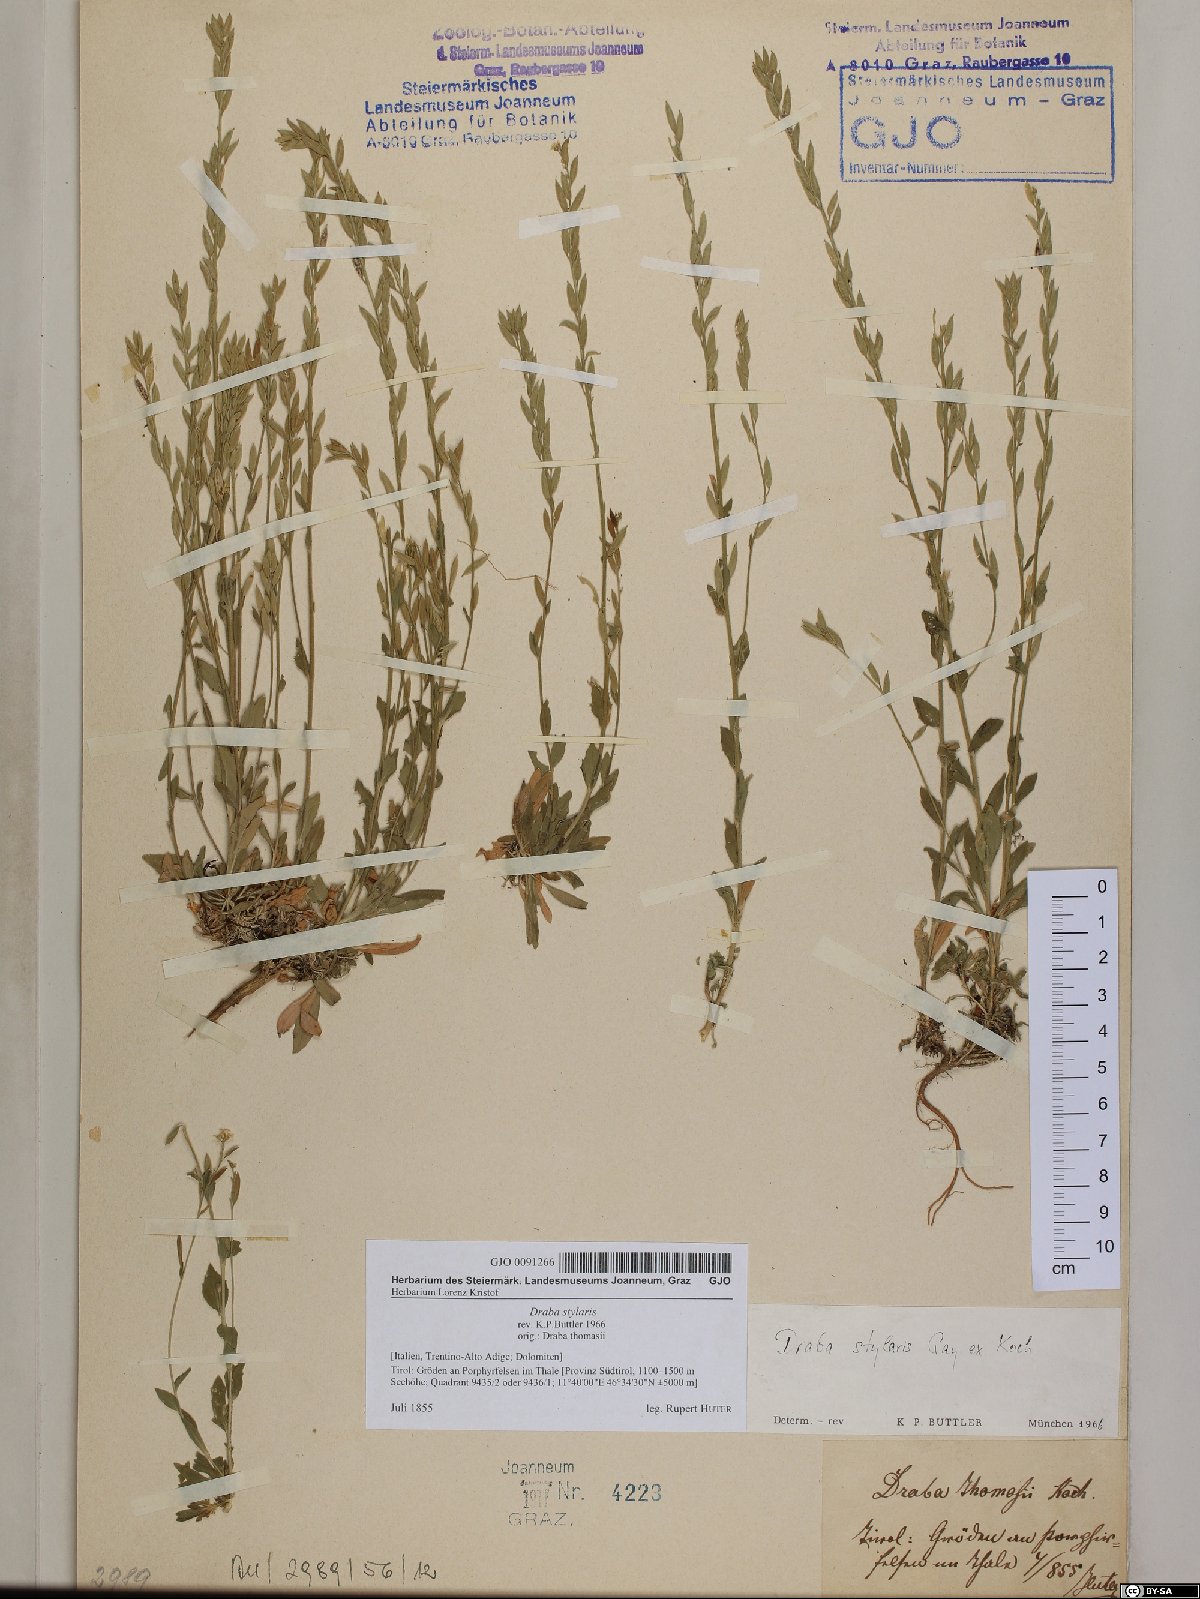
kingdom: Plantae
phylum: Tracheophyta
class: Magnoliopsida
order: Brassicales
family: Brassicaceae
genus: Draba
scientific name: Draba thomasii
